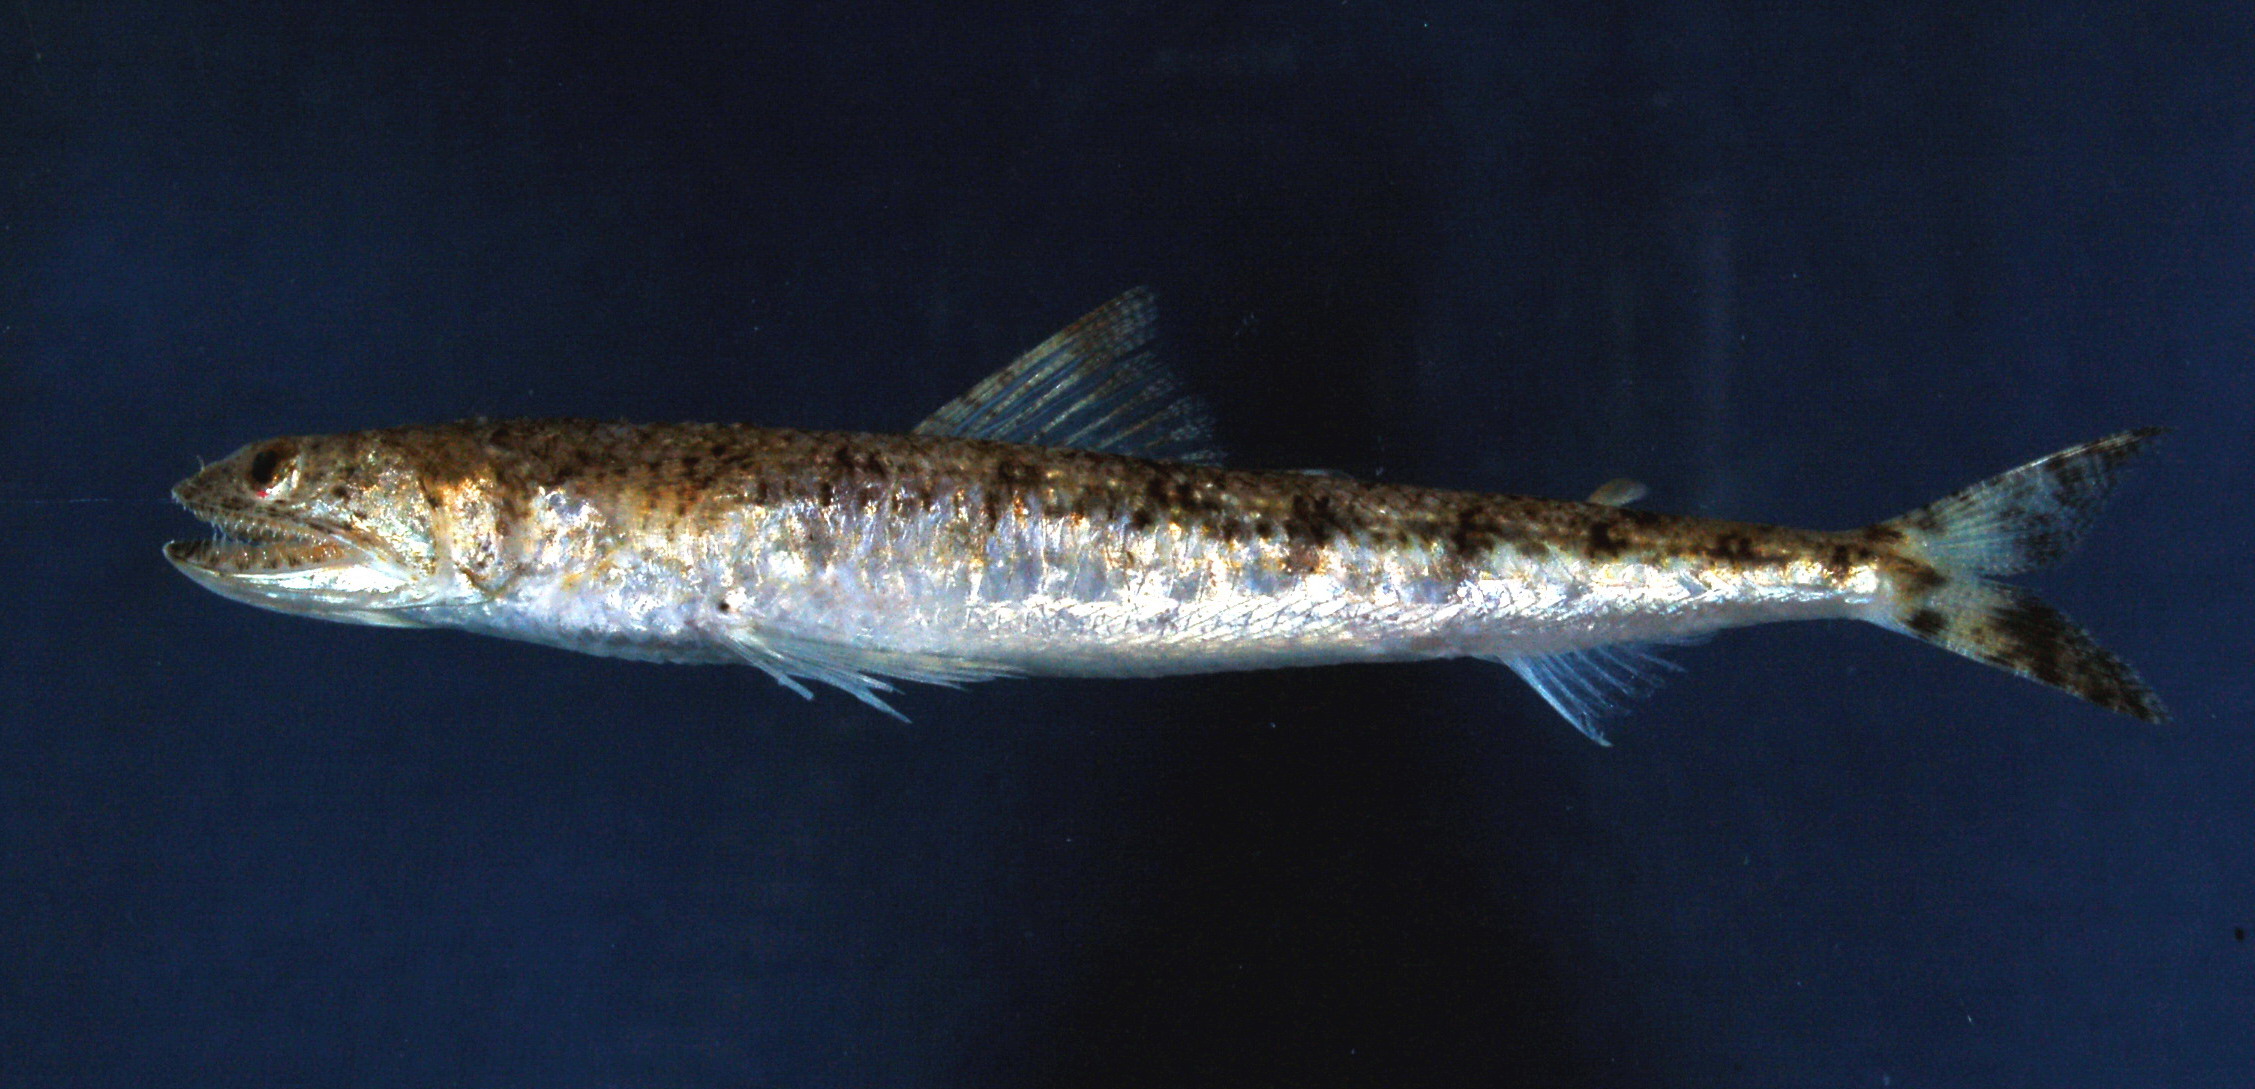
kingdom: Animalia
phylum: Chordata
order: Aulopiformes
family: Synodontidae
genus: Saurida
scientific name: Saurida nebulosa
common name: Nebulous lizardfish
